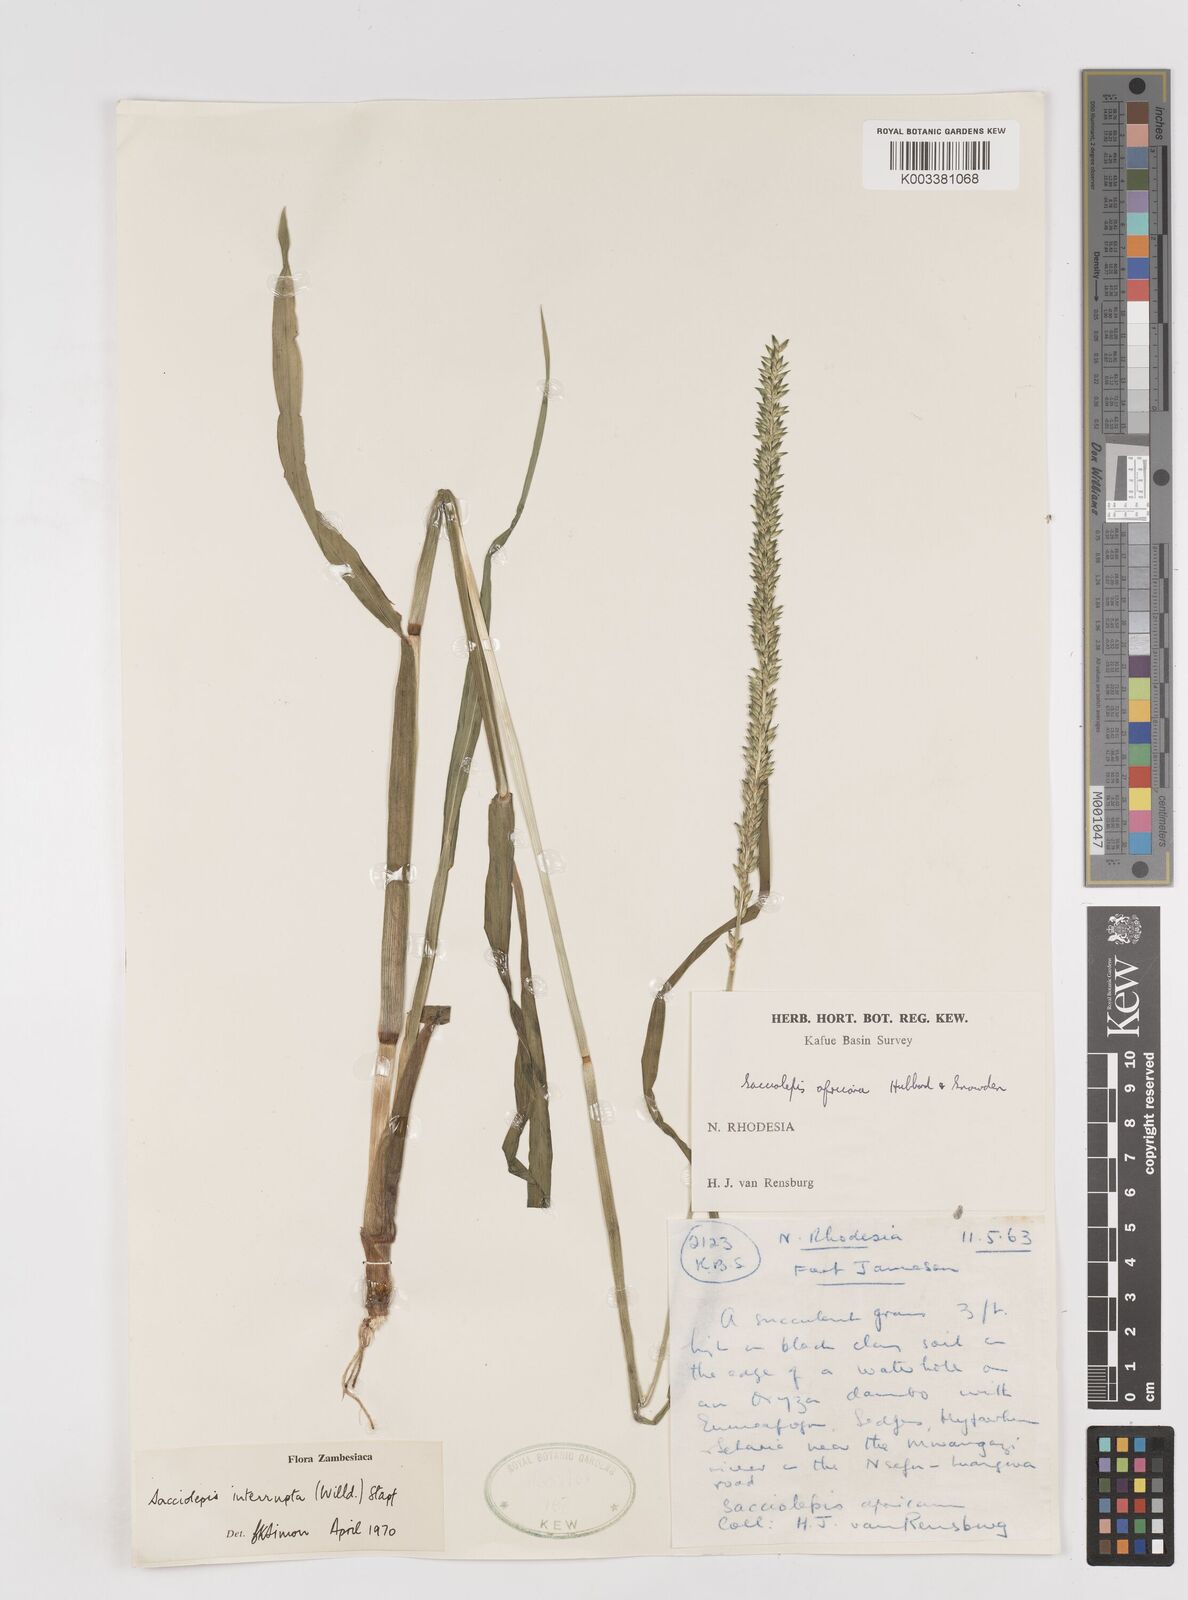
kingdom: Plantae
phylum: Tracheophyta
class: Liliopsida
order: Poales
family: Poaceae
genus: Sacciolepis
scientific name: Sacciolepis interrupta
